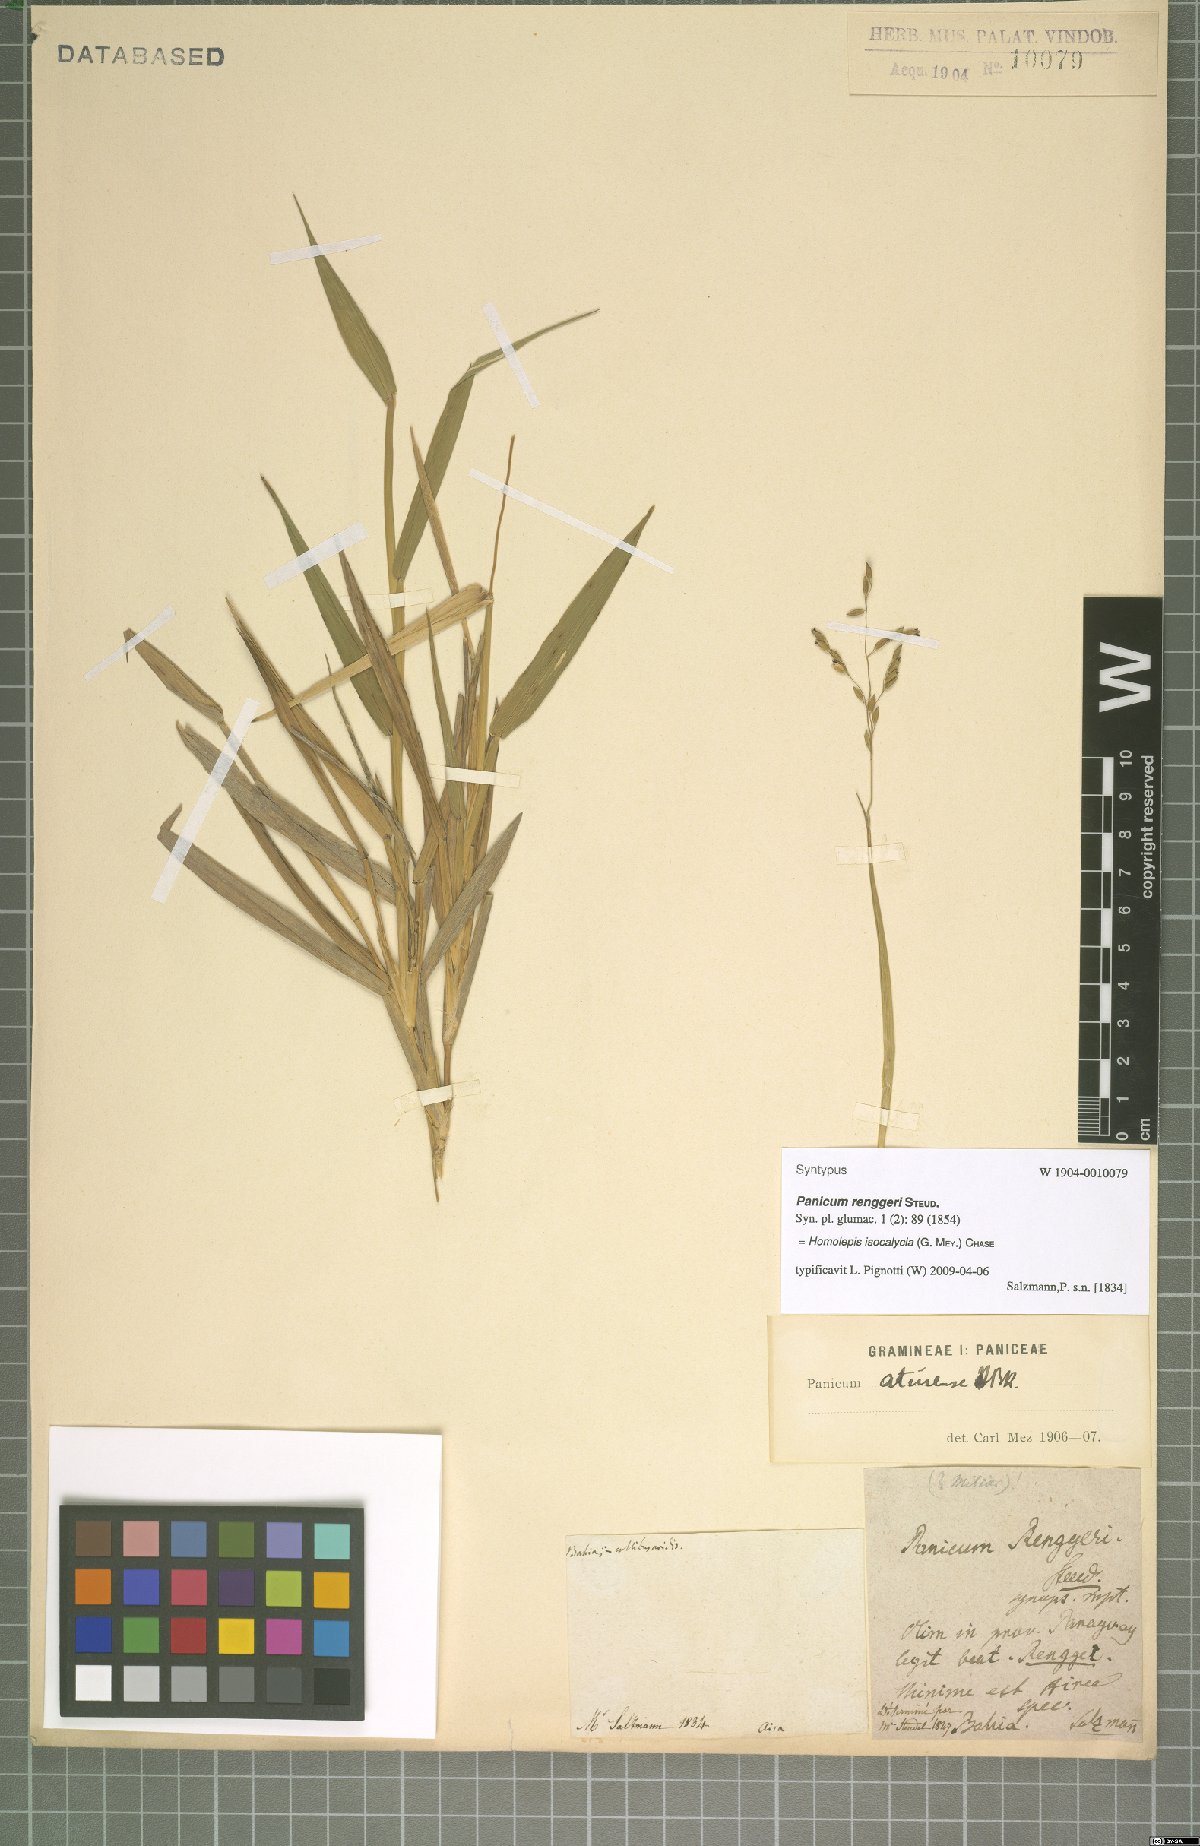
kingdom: Plantae
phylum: Tracheophyta
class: Liliopsida
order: Poales
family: Poaceae
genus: Homolepis
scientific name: Homolepis isocalycia
